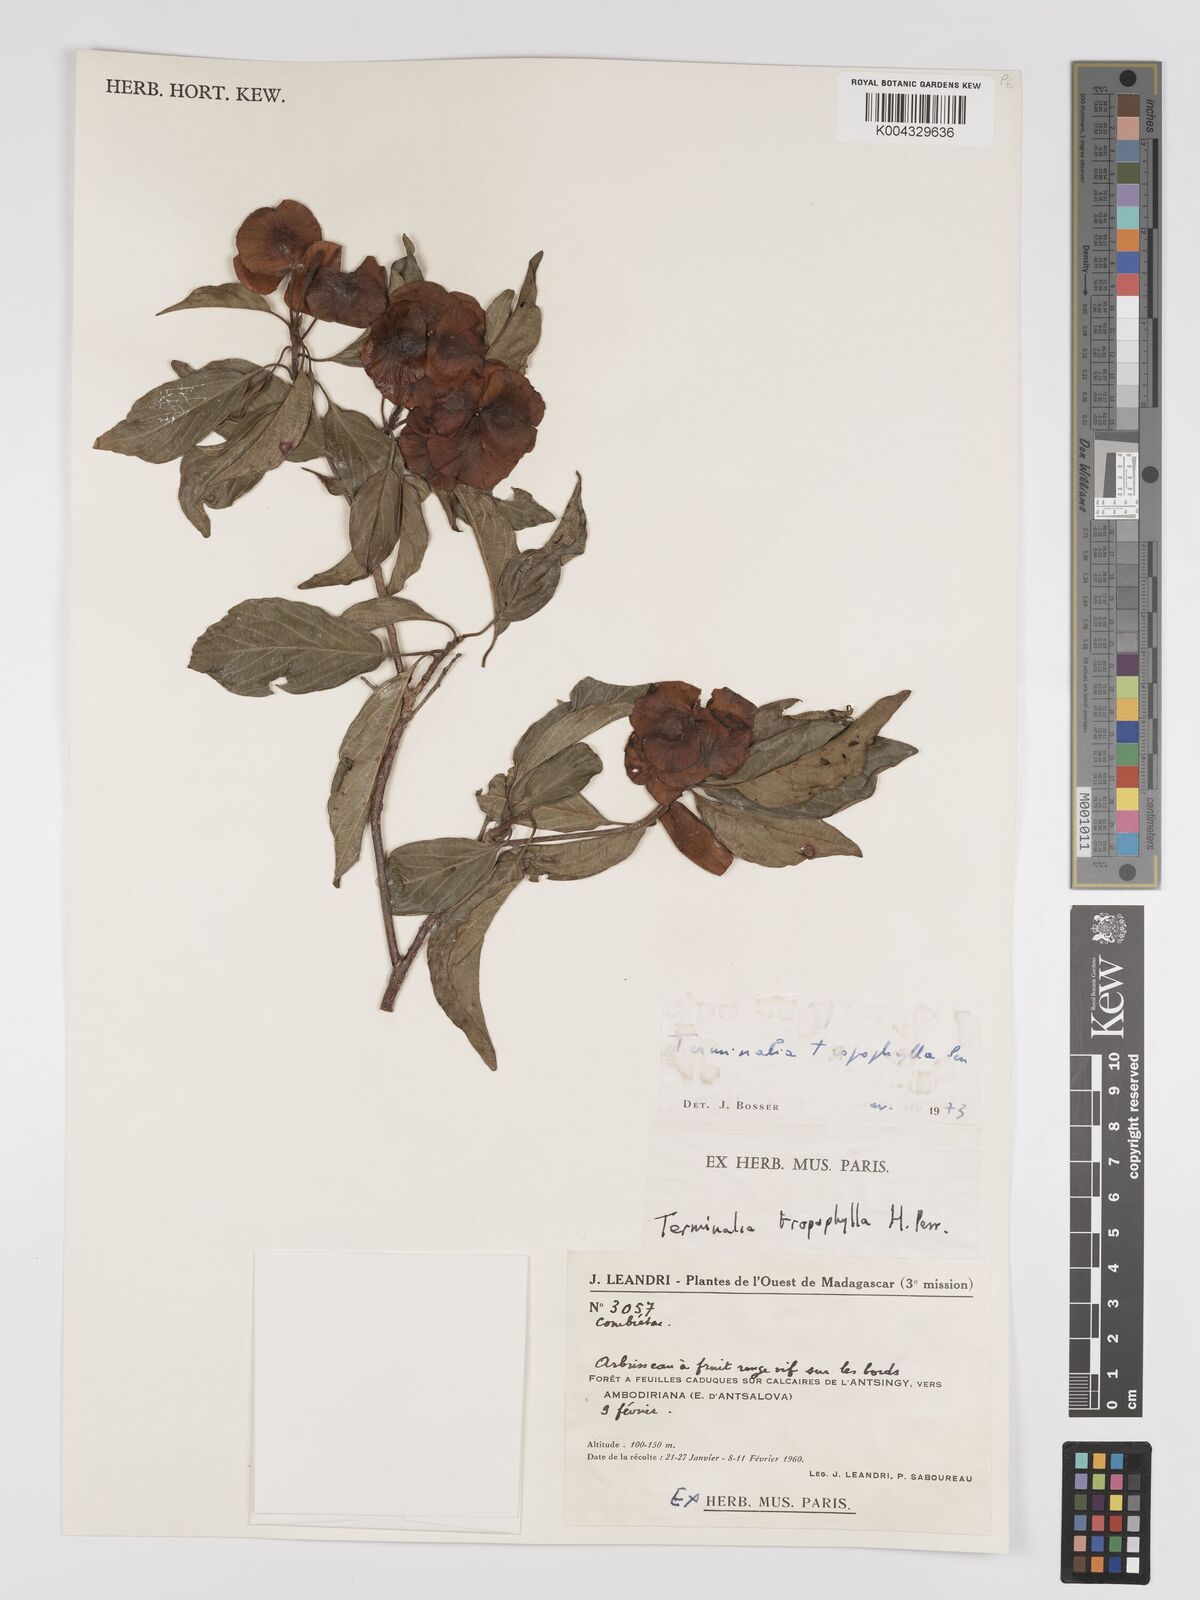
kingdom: Plantae
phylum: Tracheophyta
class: Magnoliopsida
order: Myrtales
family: Combretaceae
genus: Terminalia
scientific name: Terminalia tropophylla
